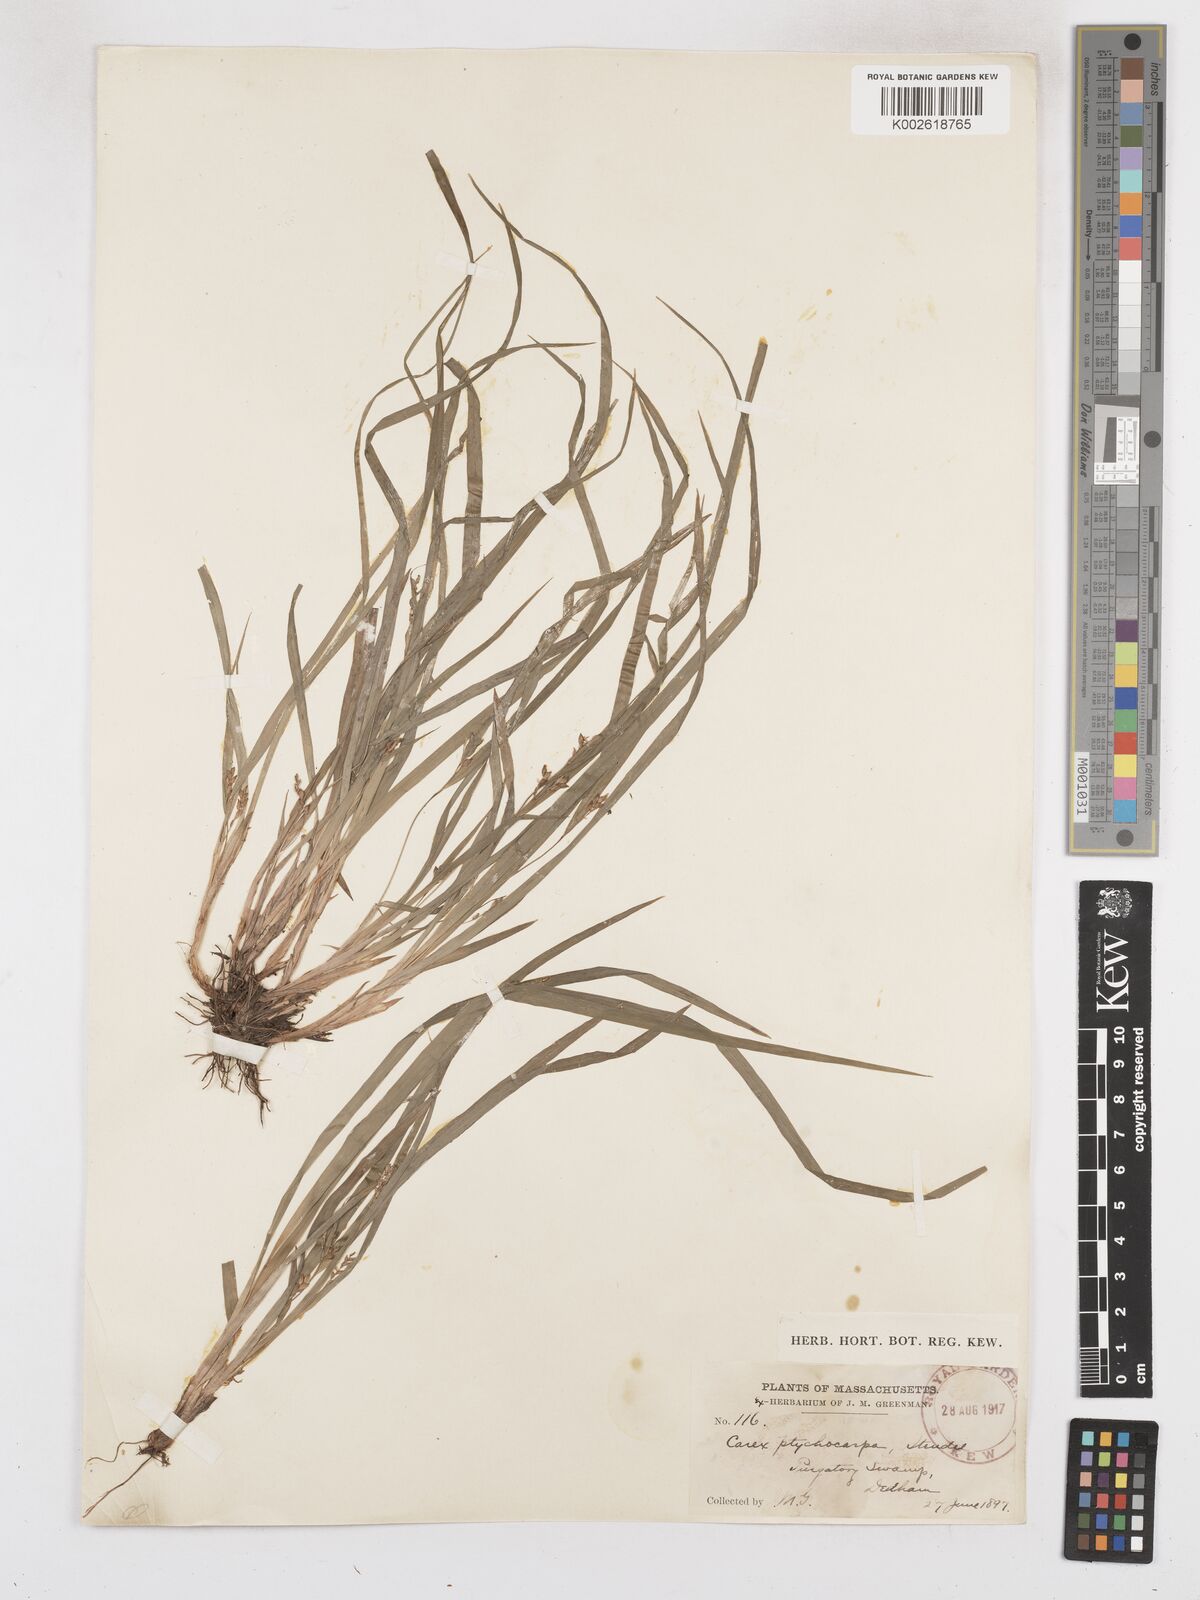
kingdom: Plantae
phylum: Tracheophyta
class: Liliopsida
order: Poales
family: Cyperaceae
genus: Carex
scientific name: Carex abscondita
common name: Thicket sedge
